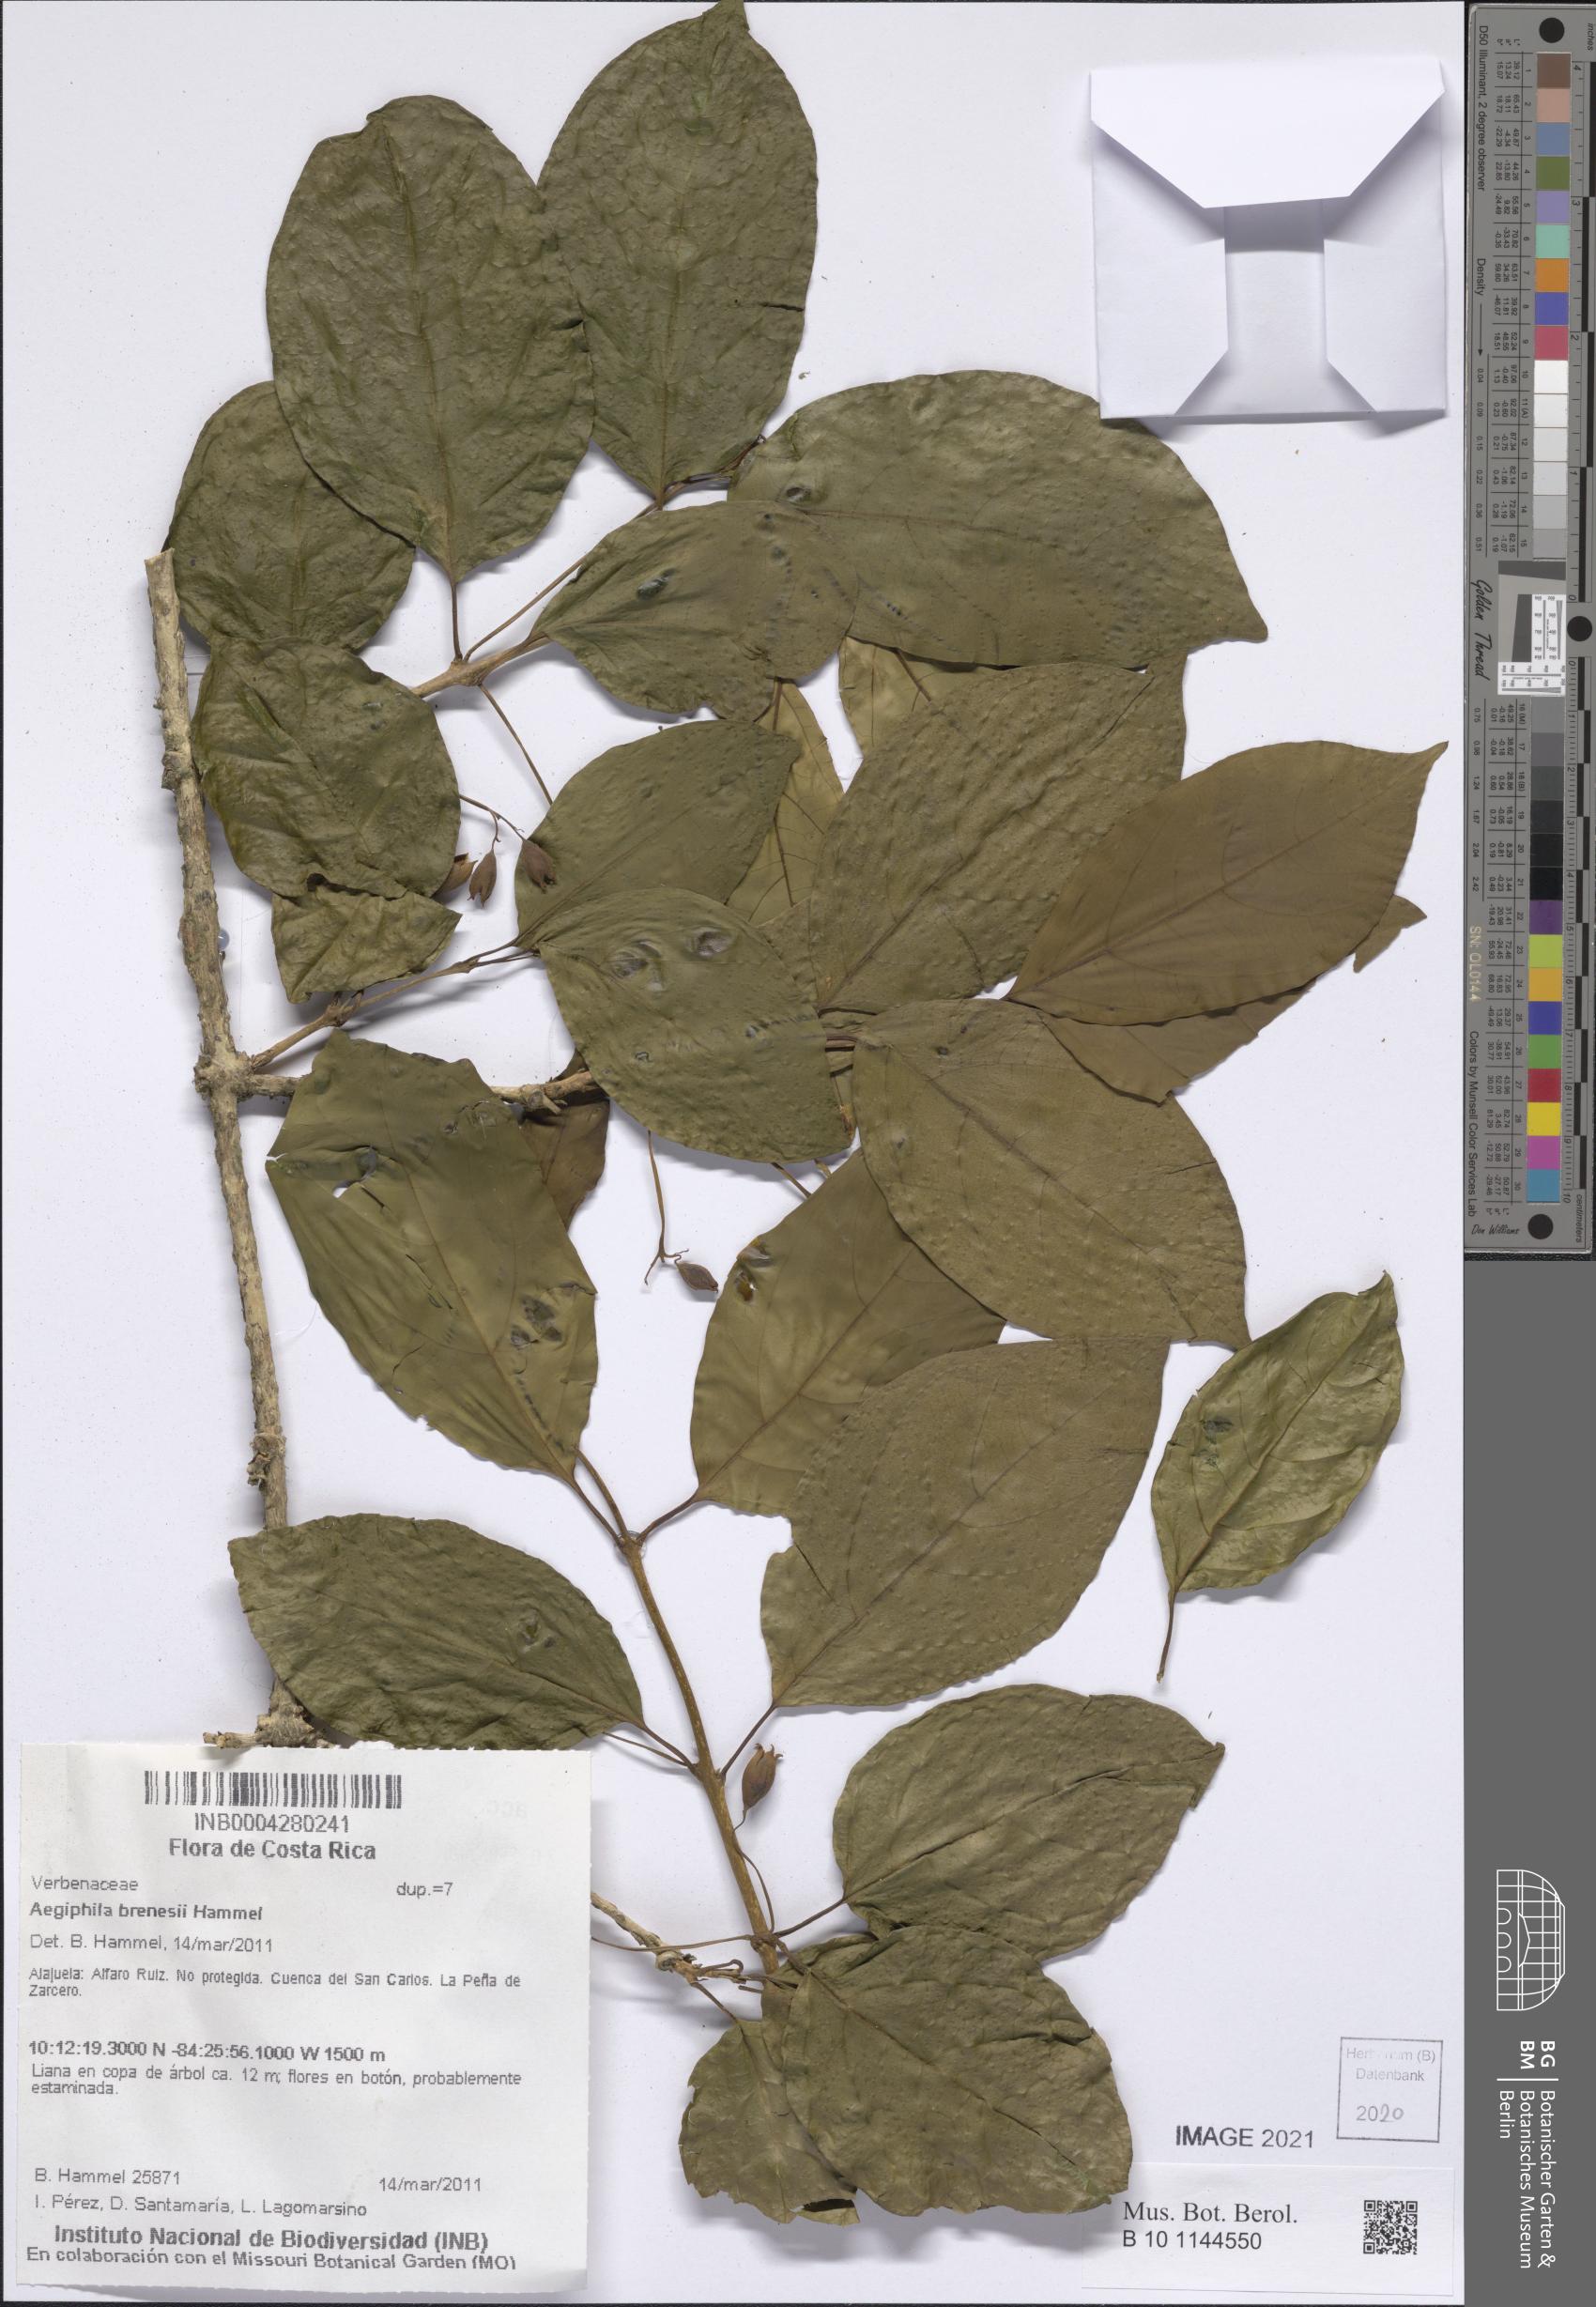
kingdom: Plantae
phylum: Tracheophyta
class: Magnoliopsida
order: Lamiales
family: Lamiaceae
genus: Aegiphila
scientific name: Aegiphila brenesii
